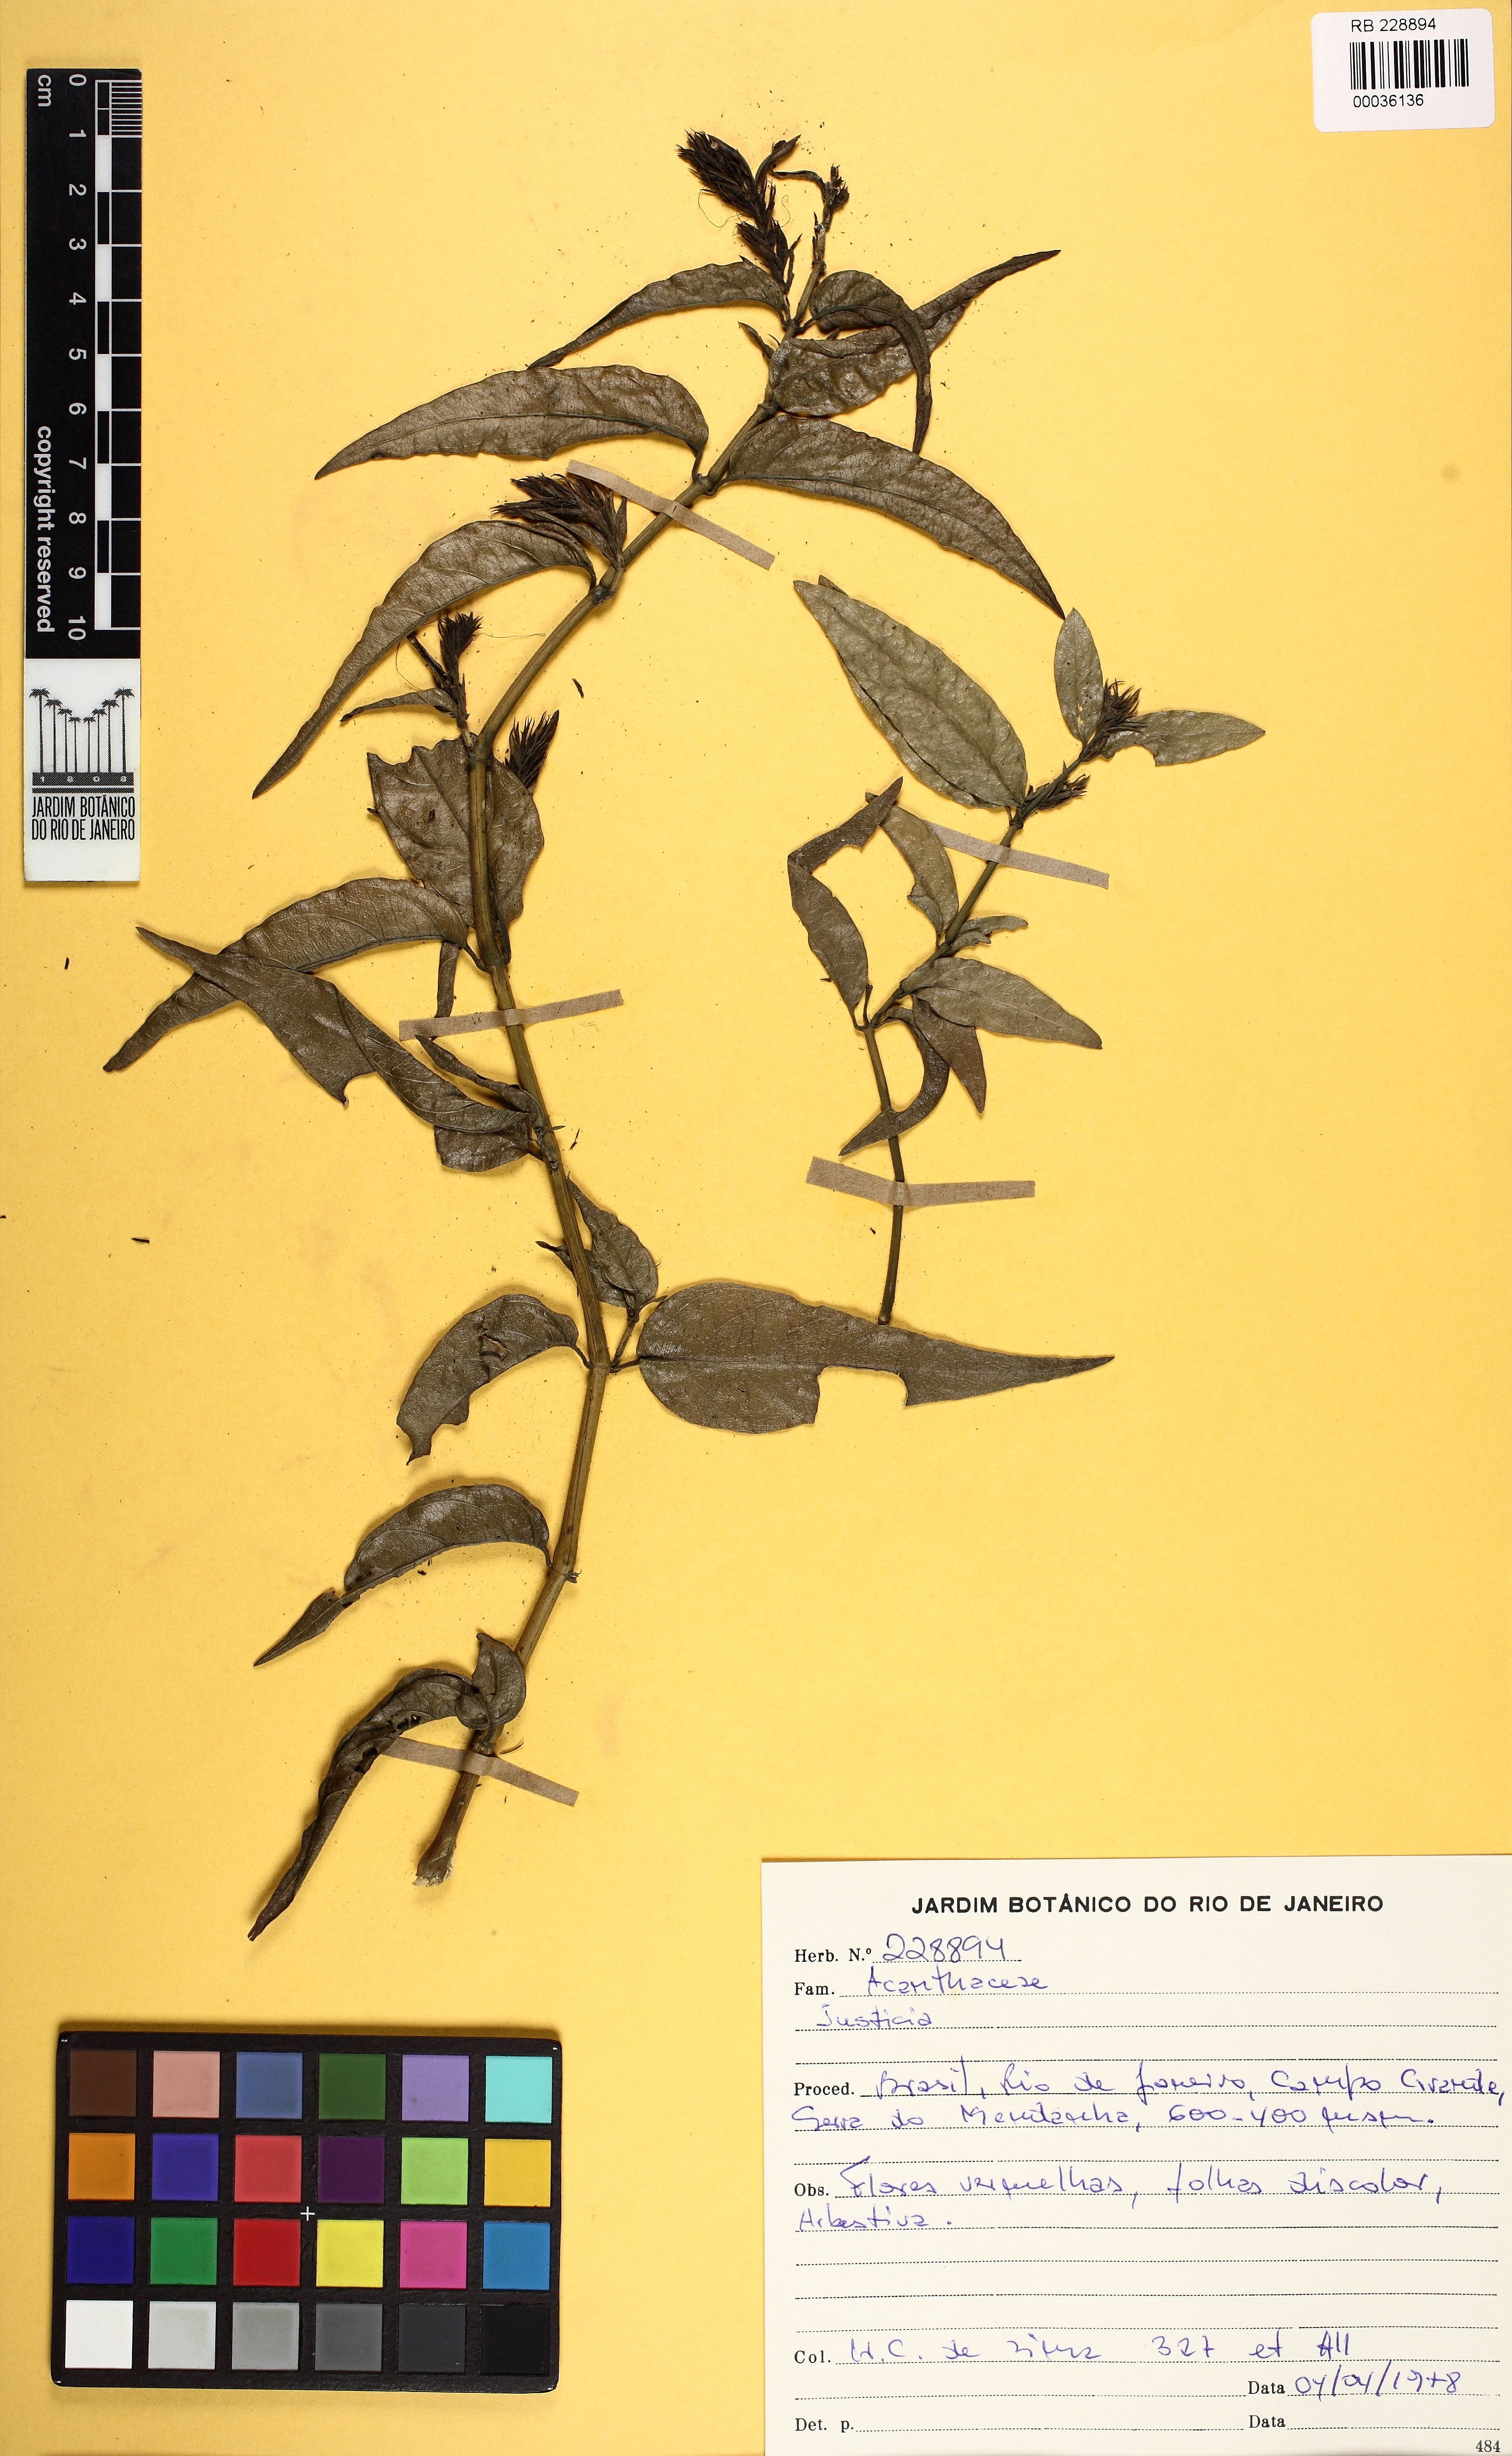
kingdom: Plantae
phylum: Tracheophyta
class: Magnoliopsida
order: Lamiales
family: Acanthaceae
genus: Justicia
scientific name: Justicia
